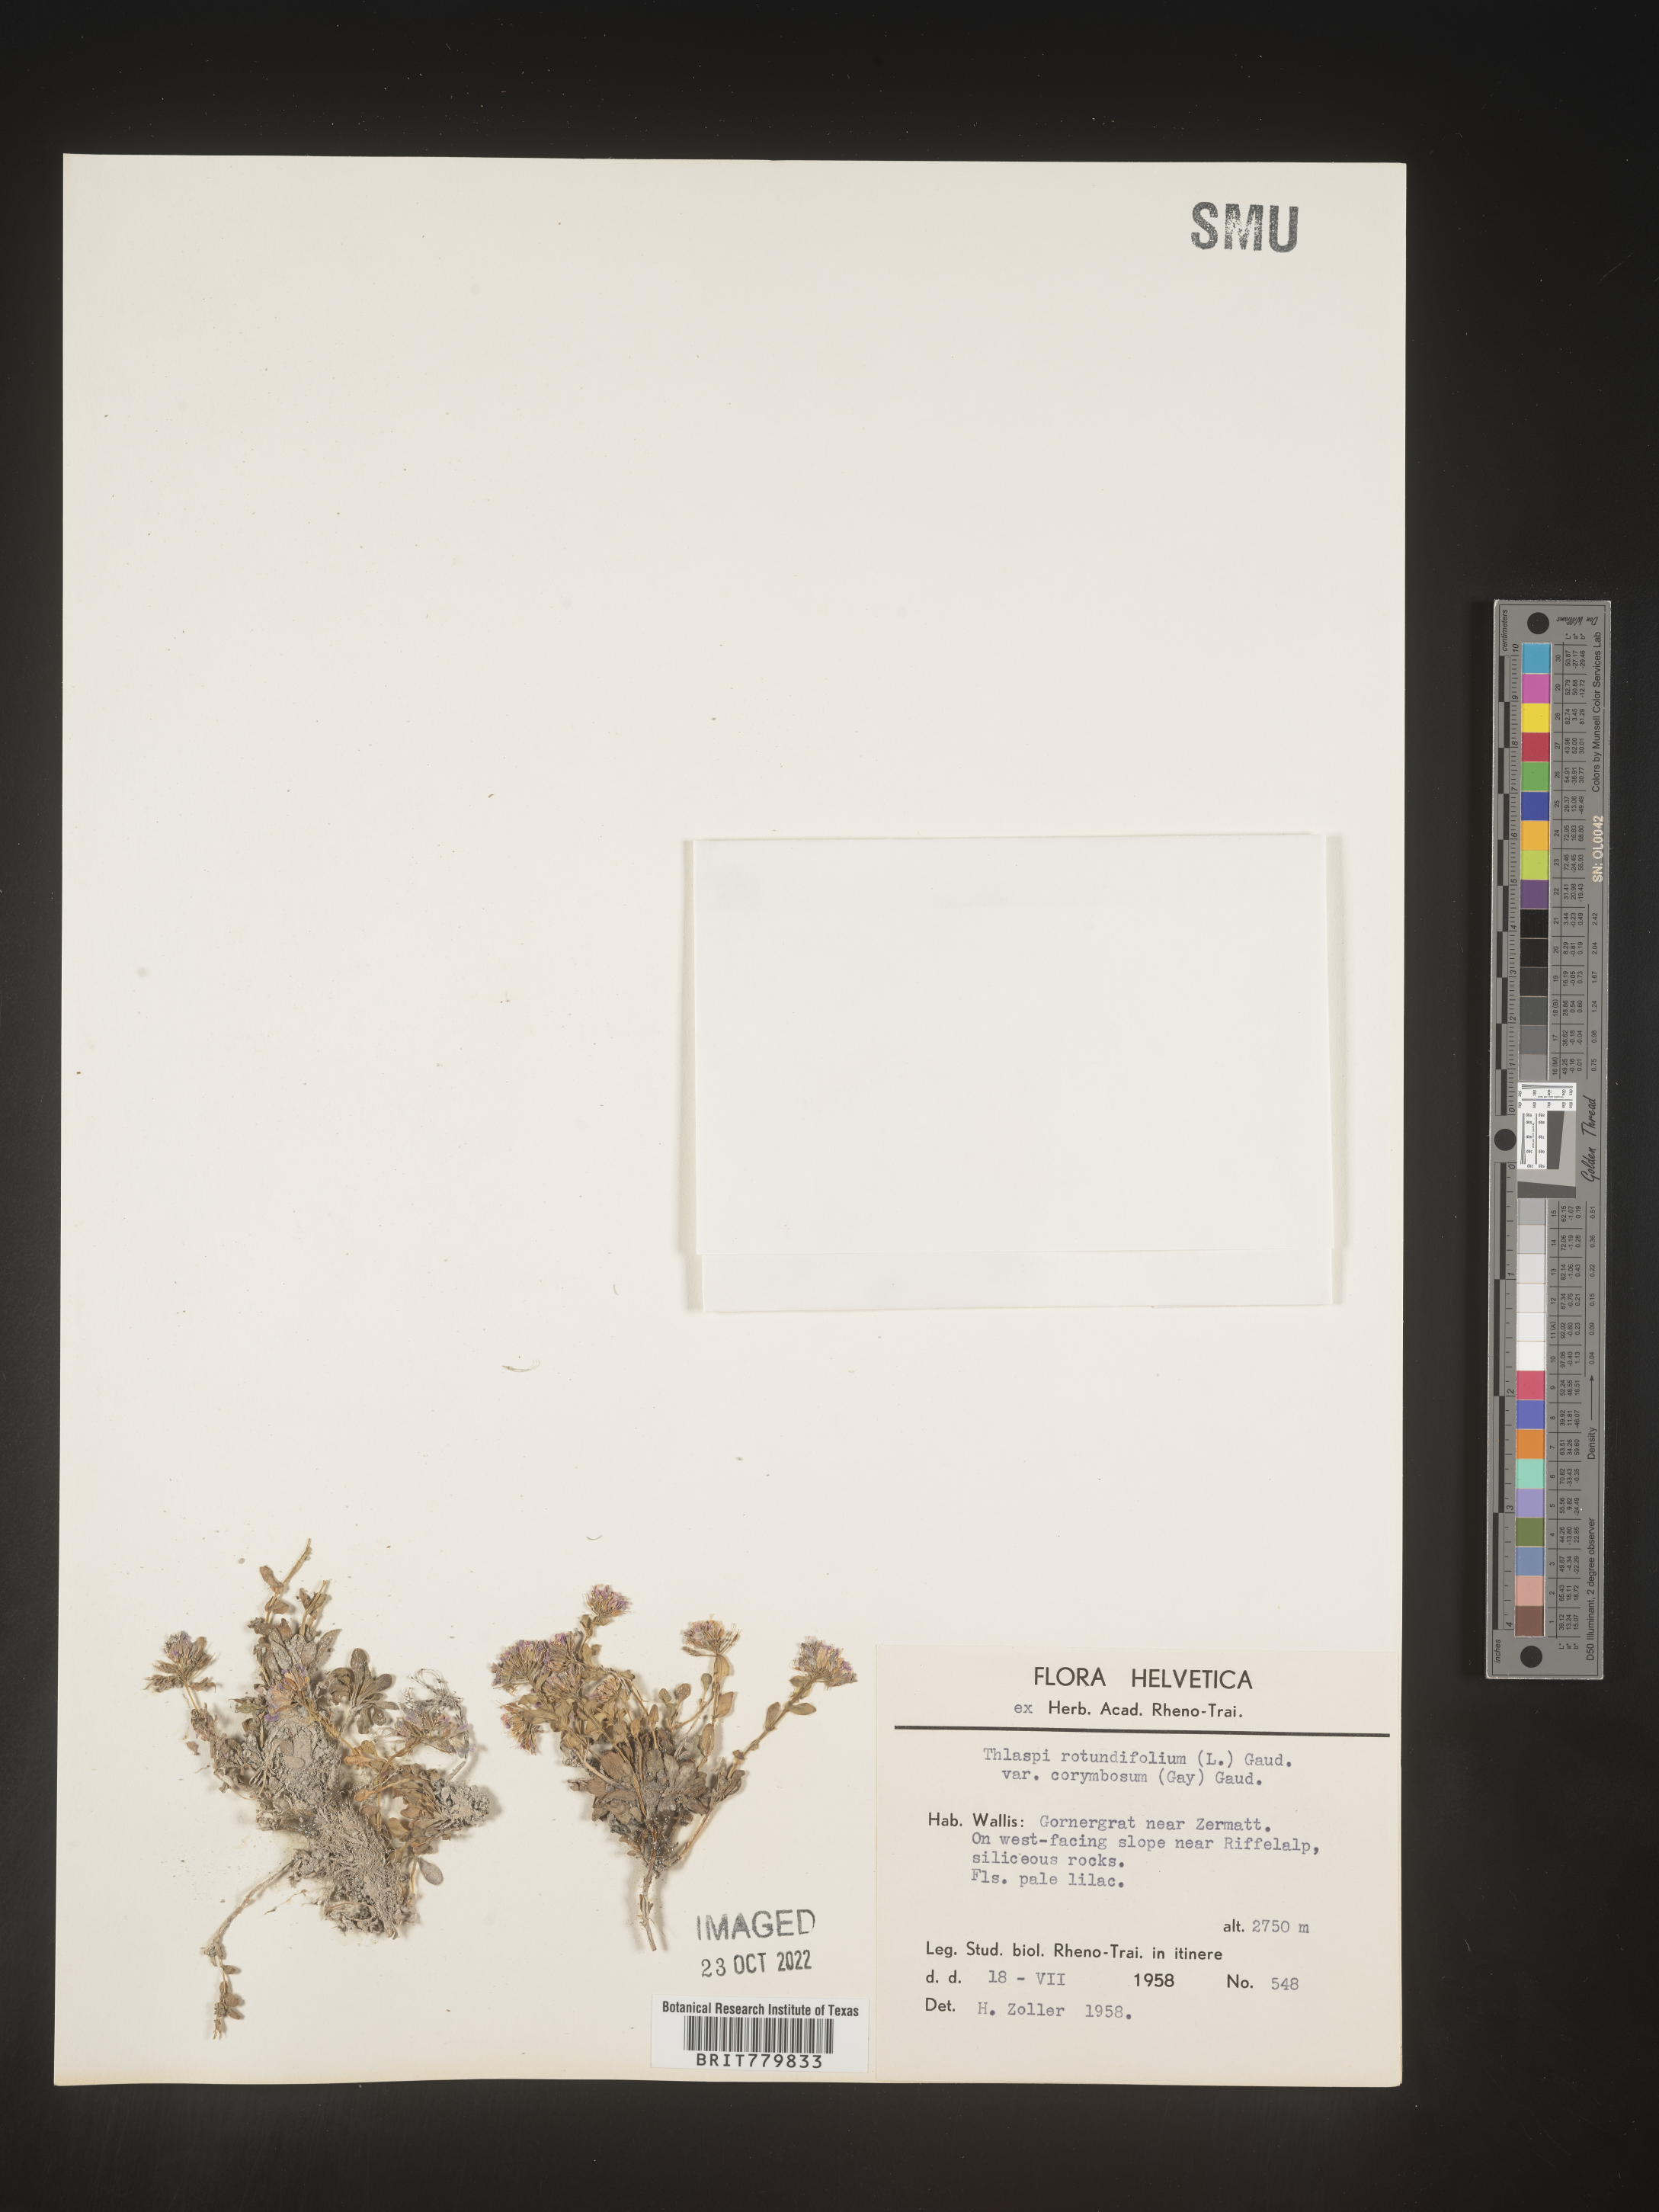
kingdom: Plantae
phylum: Tracheophyta
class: Magnoliopsida
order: Brassicales
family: Brassicaceae
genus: Thlaspi
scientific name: Thlaspi
